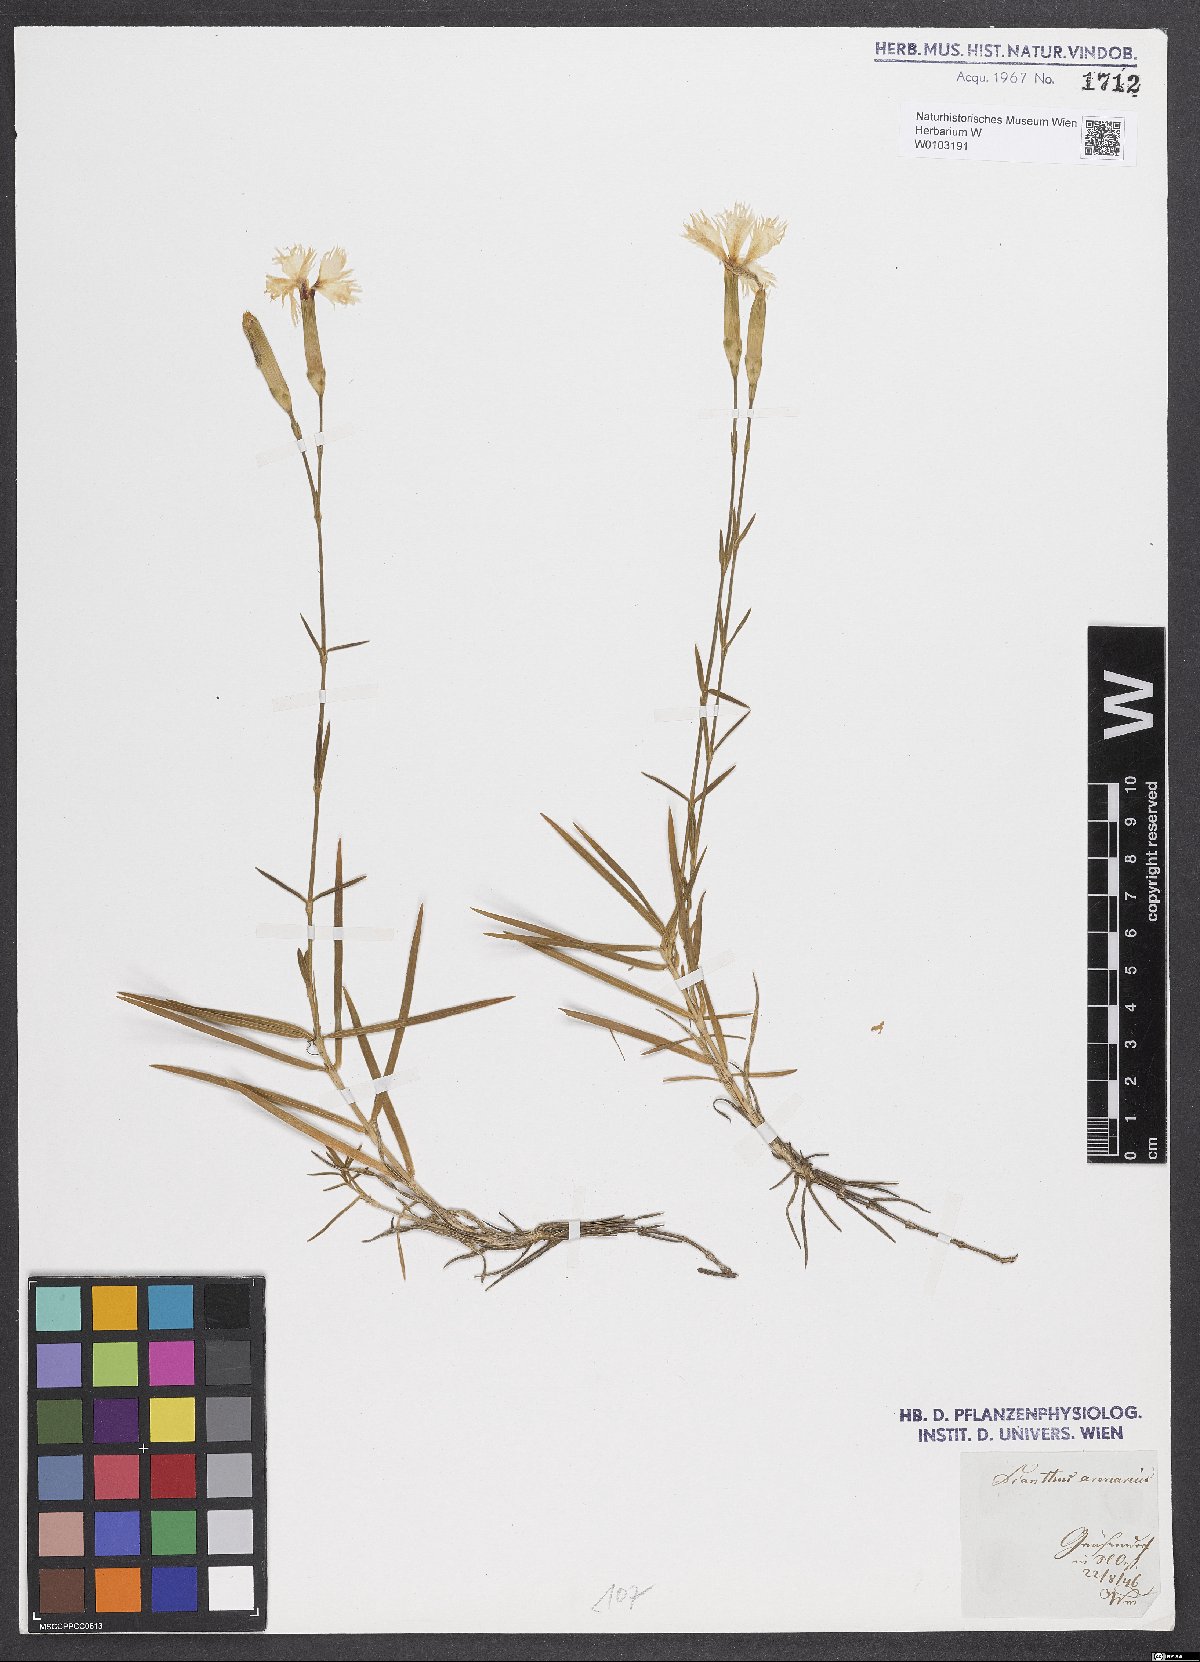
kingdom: Plantae
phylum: Tracheophyta
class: Magnoliopsida
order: Caryophyllales
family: Caryophyllaceae
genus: Dianthus
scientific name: Dianthus arenarius
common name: Stone pink
